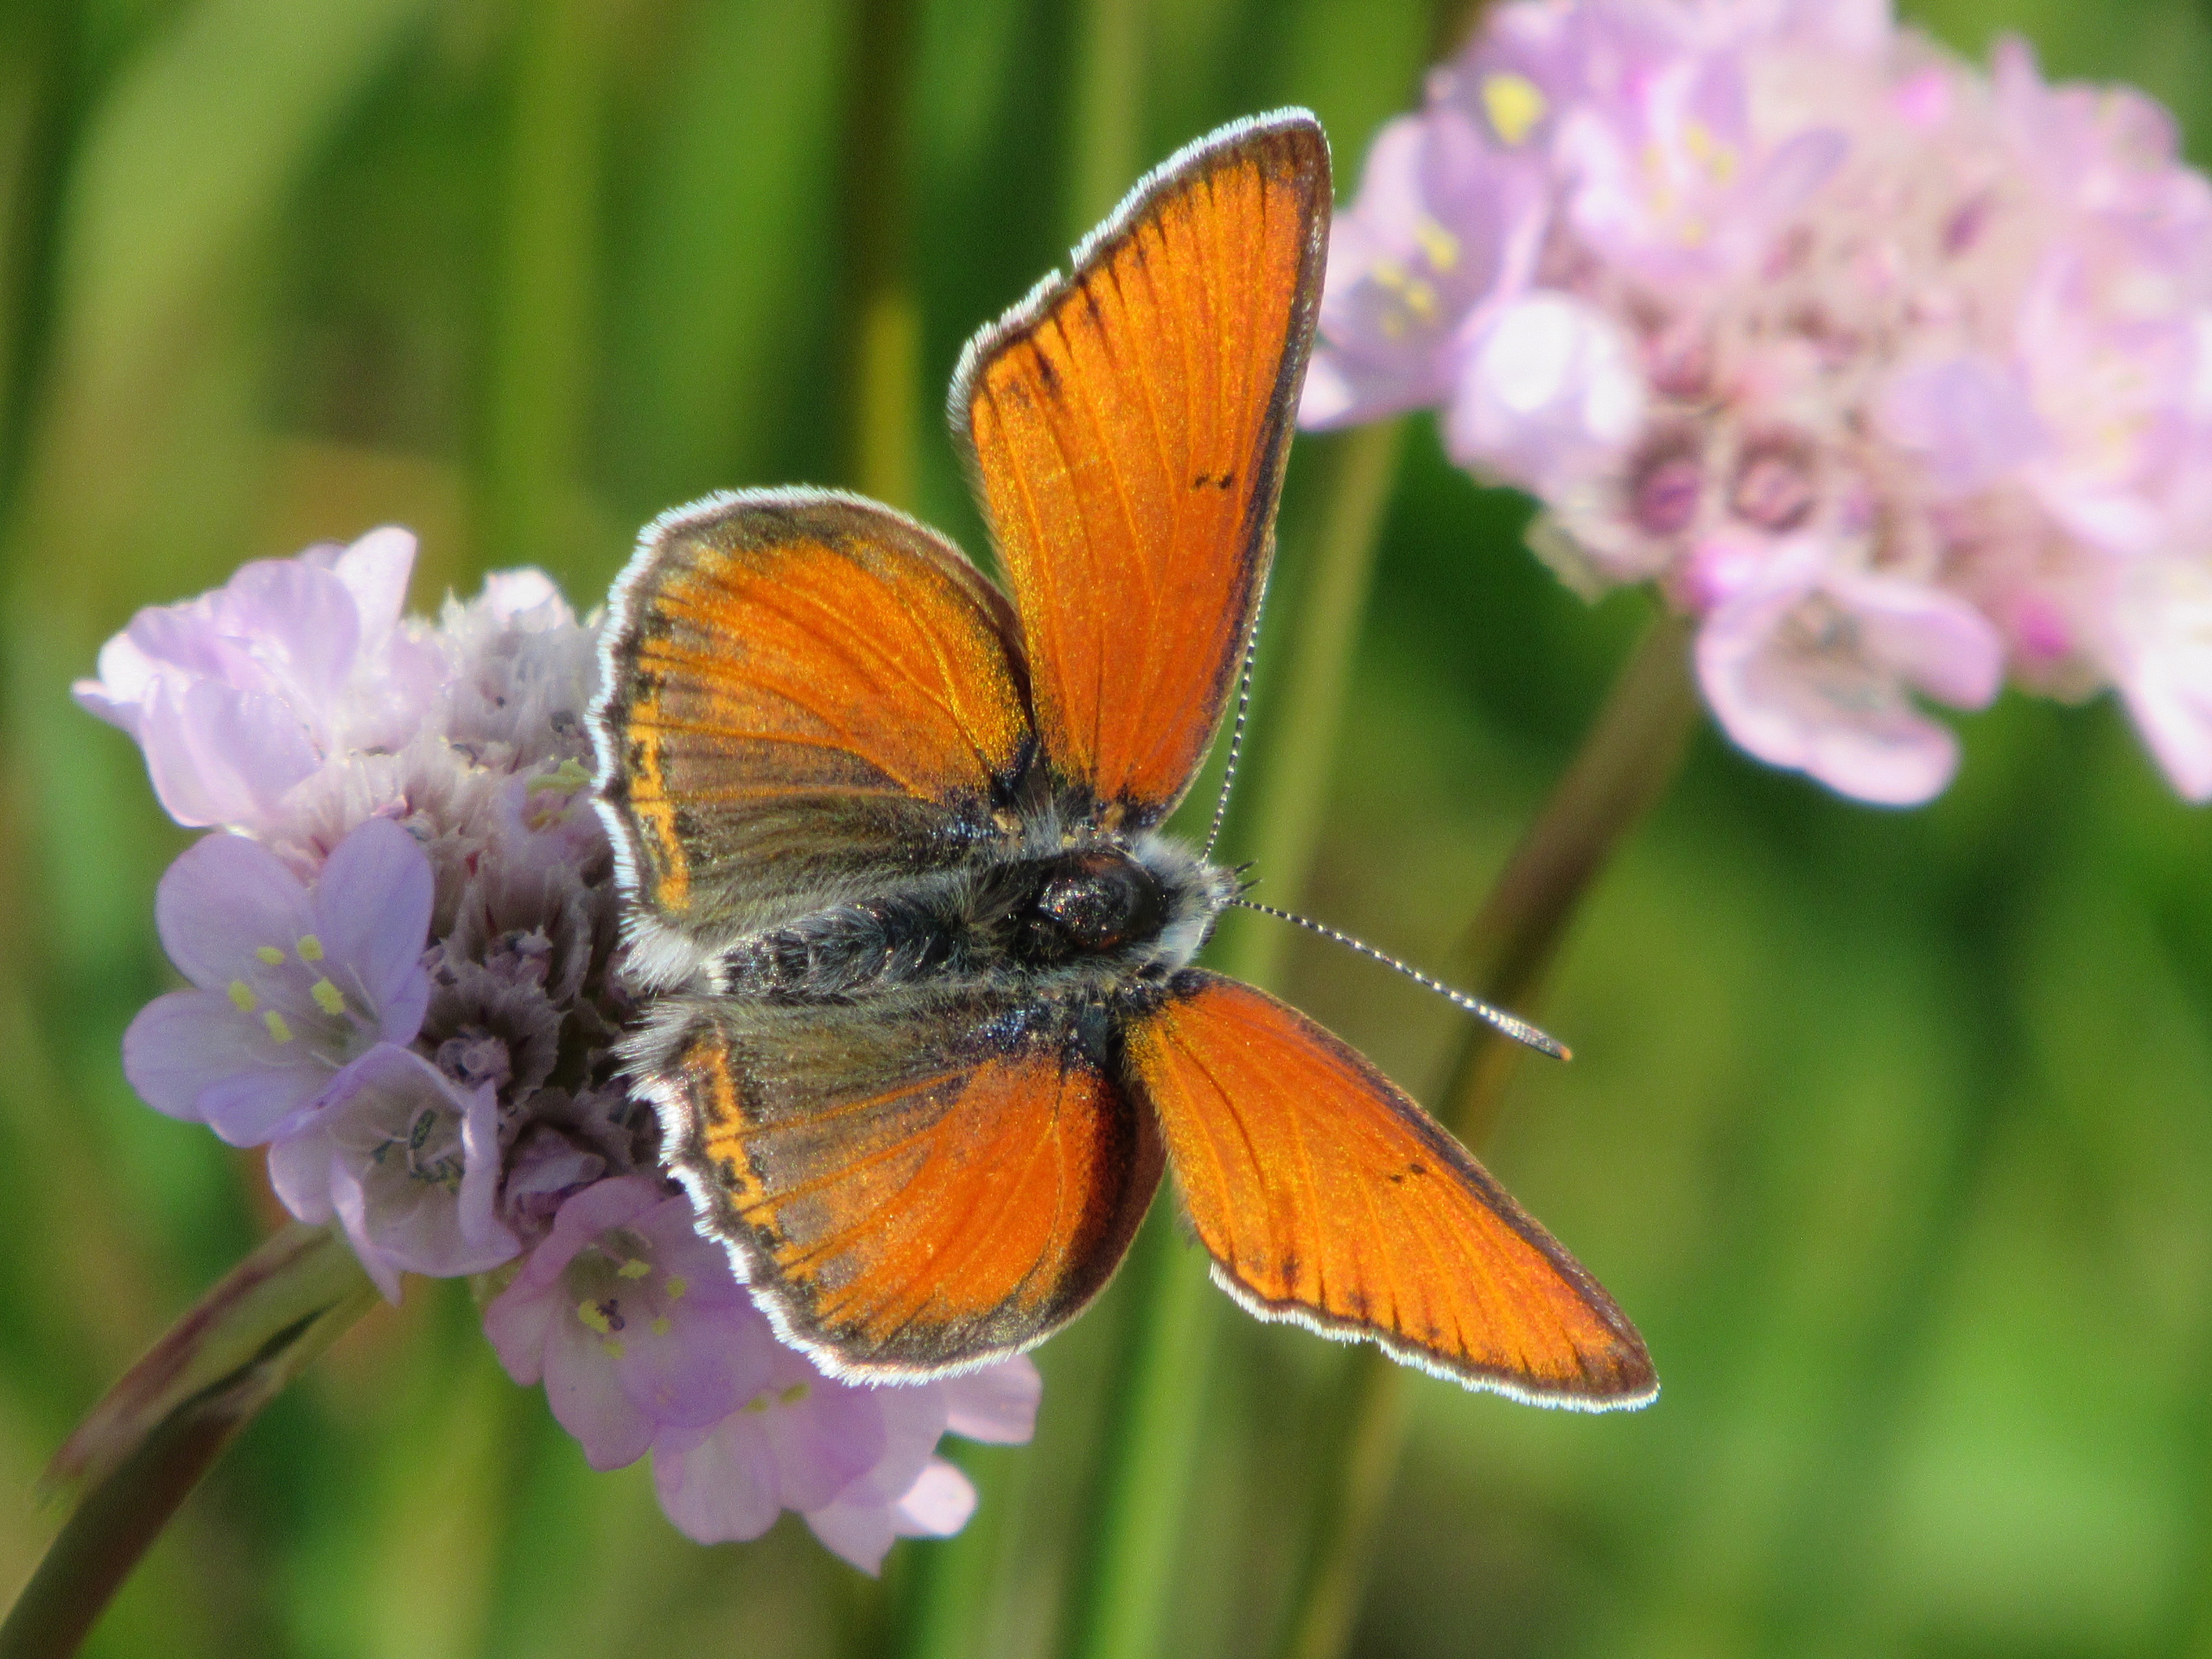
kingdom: Animalia
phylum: Arthropoda
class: Insecta
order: Lepidoptera
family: Lycaenidae
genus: Palaeochrysophanus
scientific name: Palaeochrysophanus hippothoe
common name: Violetrandet ildfugl
